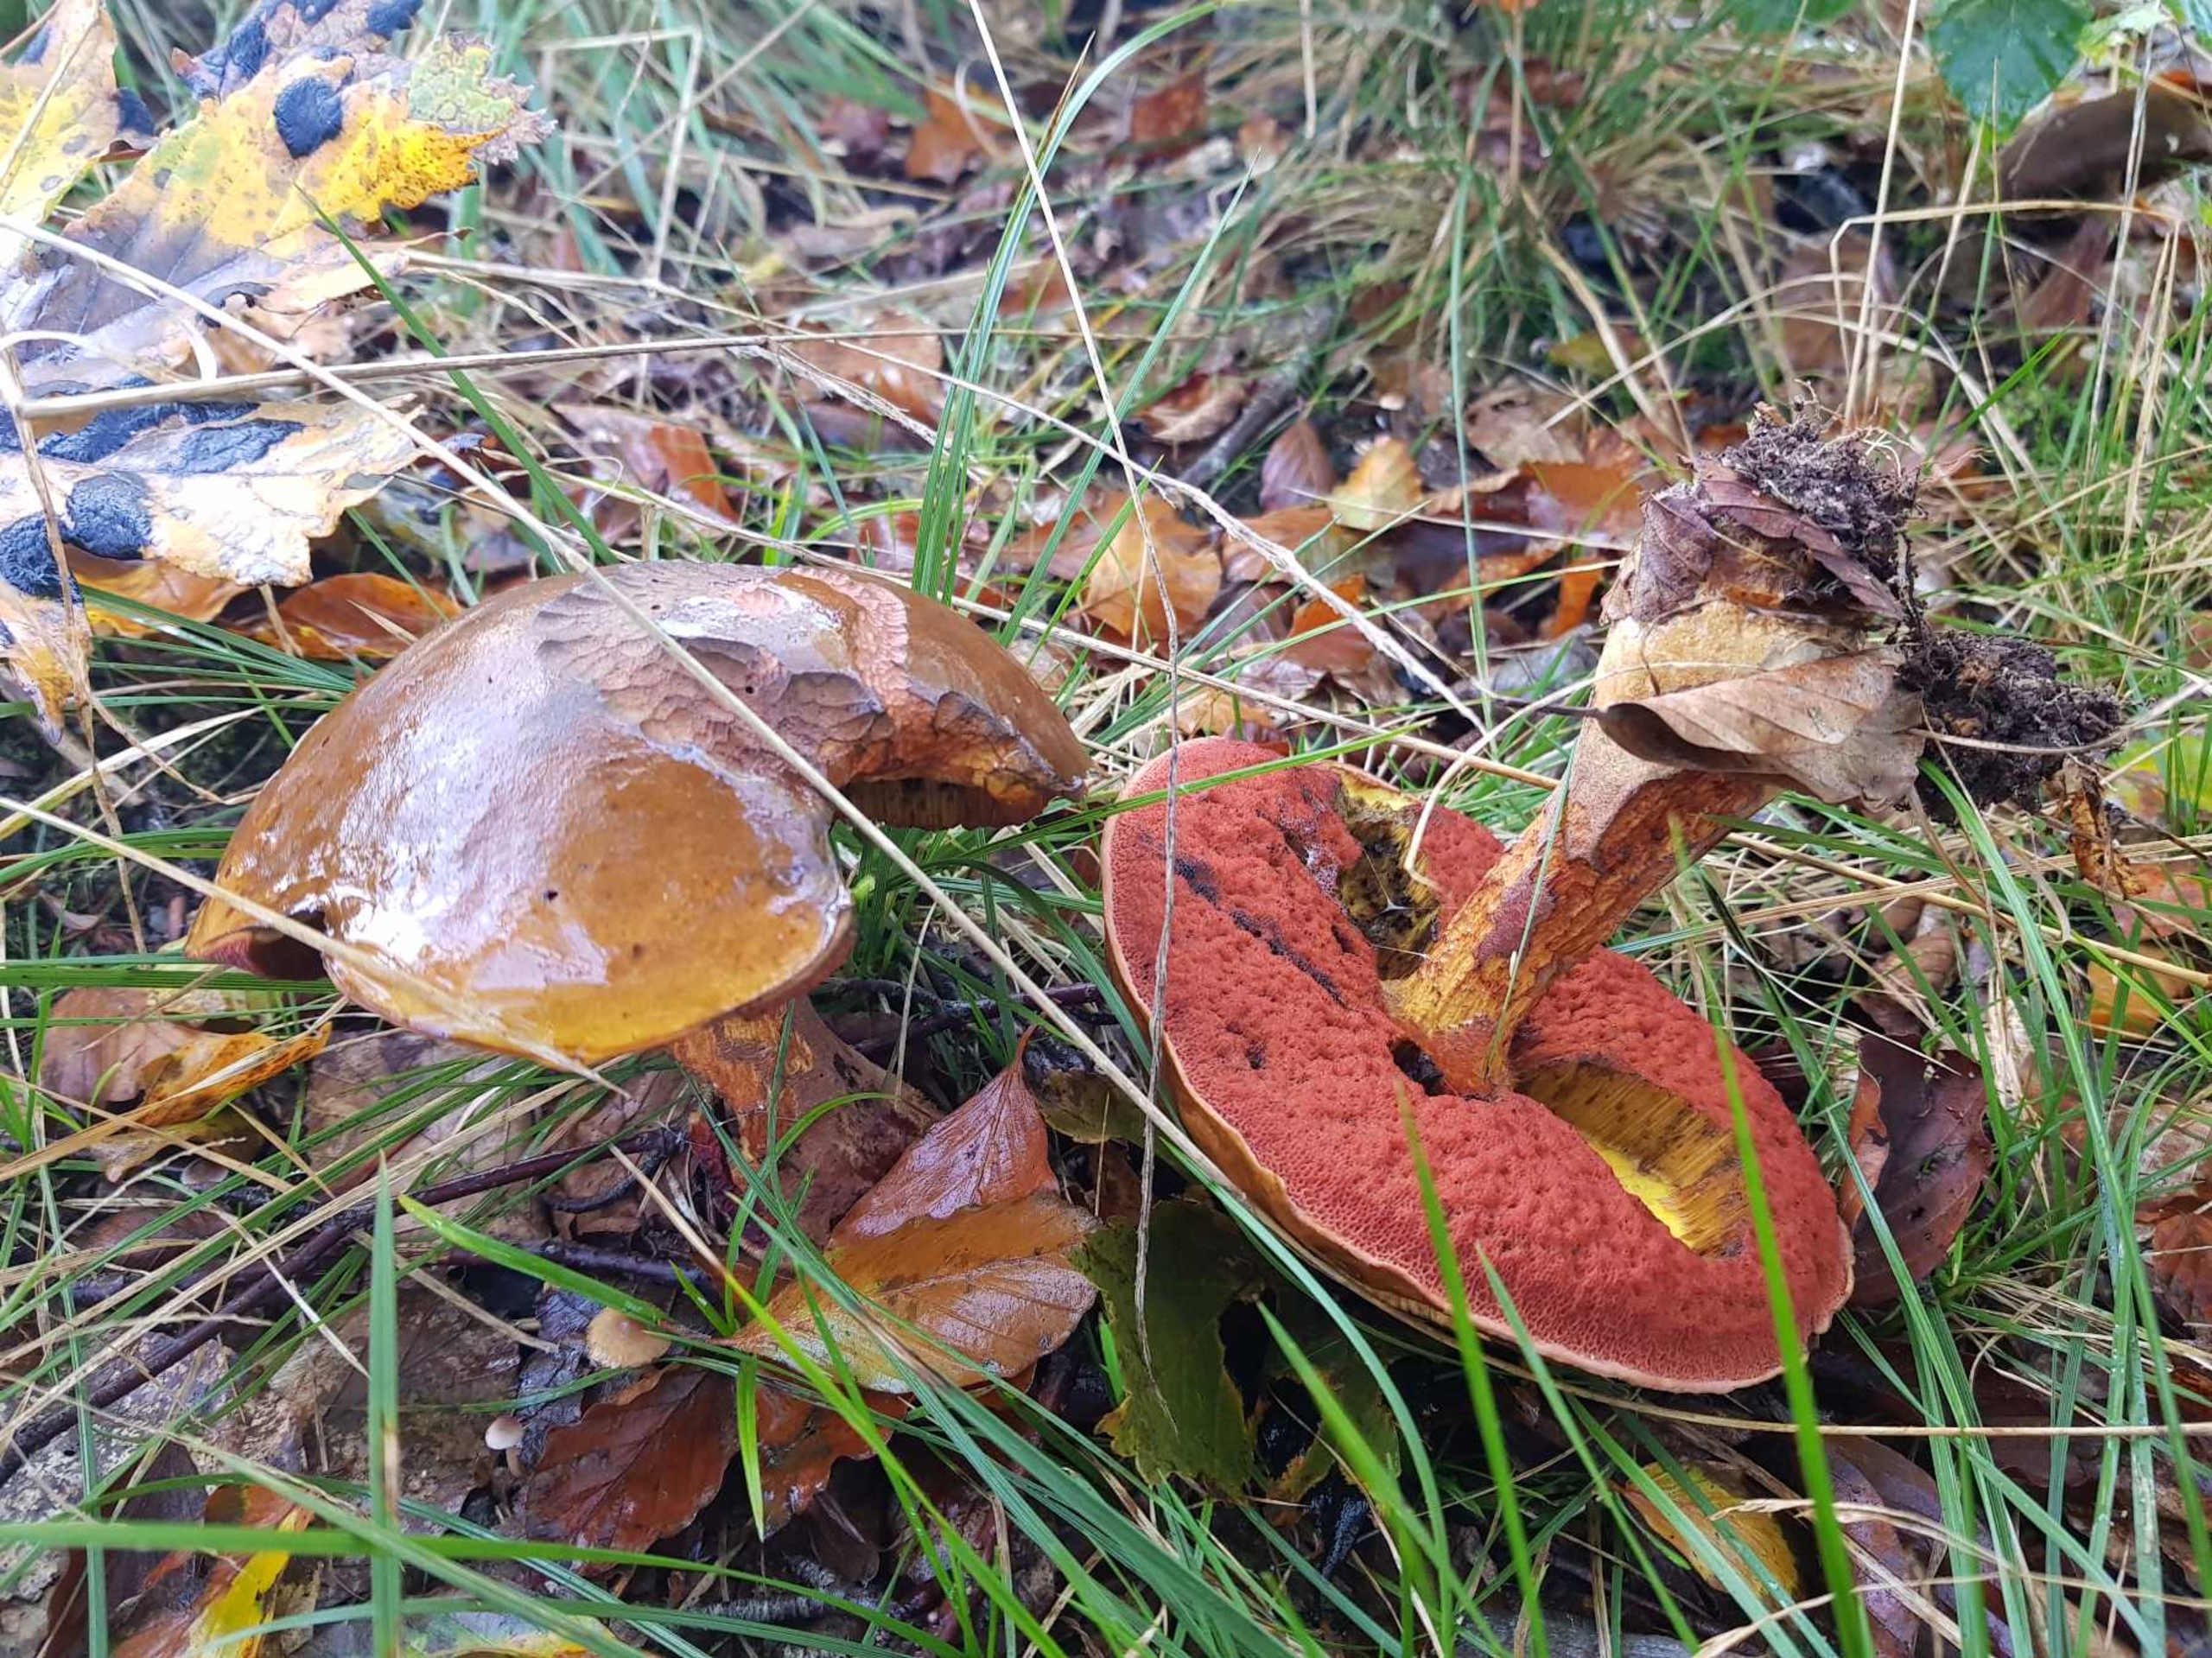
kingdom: Fungi
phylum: Basidiomycota
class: Agaricomycetes
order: Boletales
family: Boletaceae
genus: Neoboletus
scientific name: Neoboletus luridiformis
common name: Punktstokket indigorørhat
